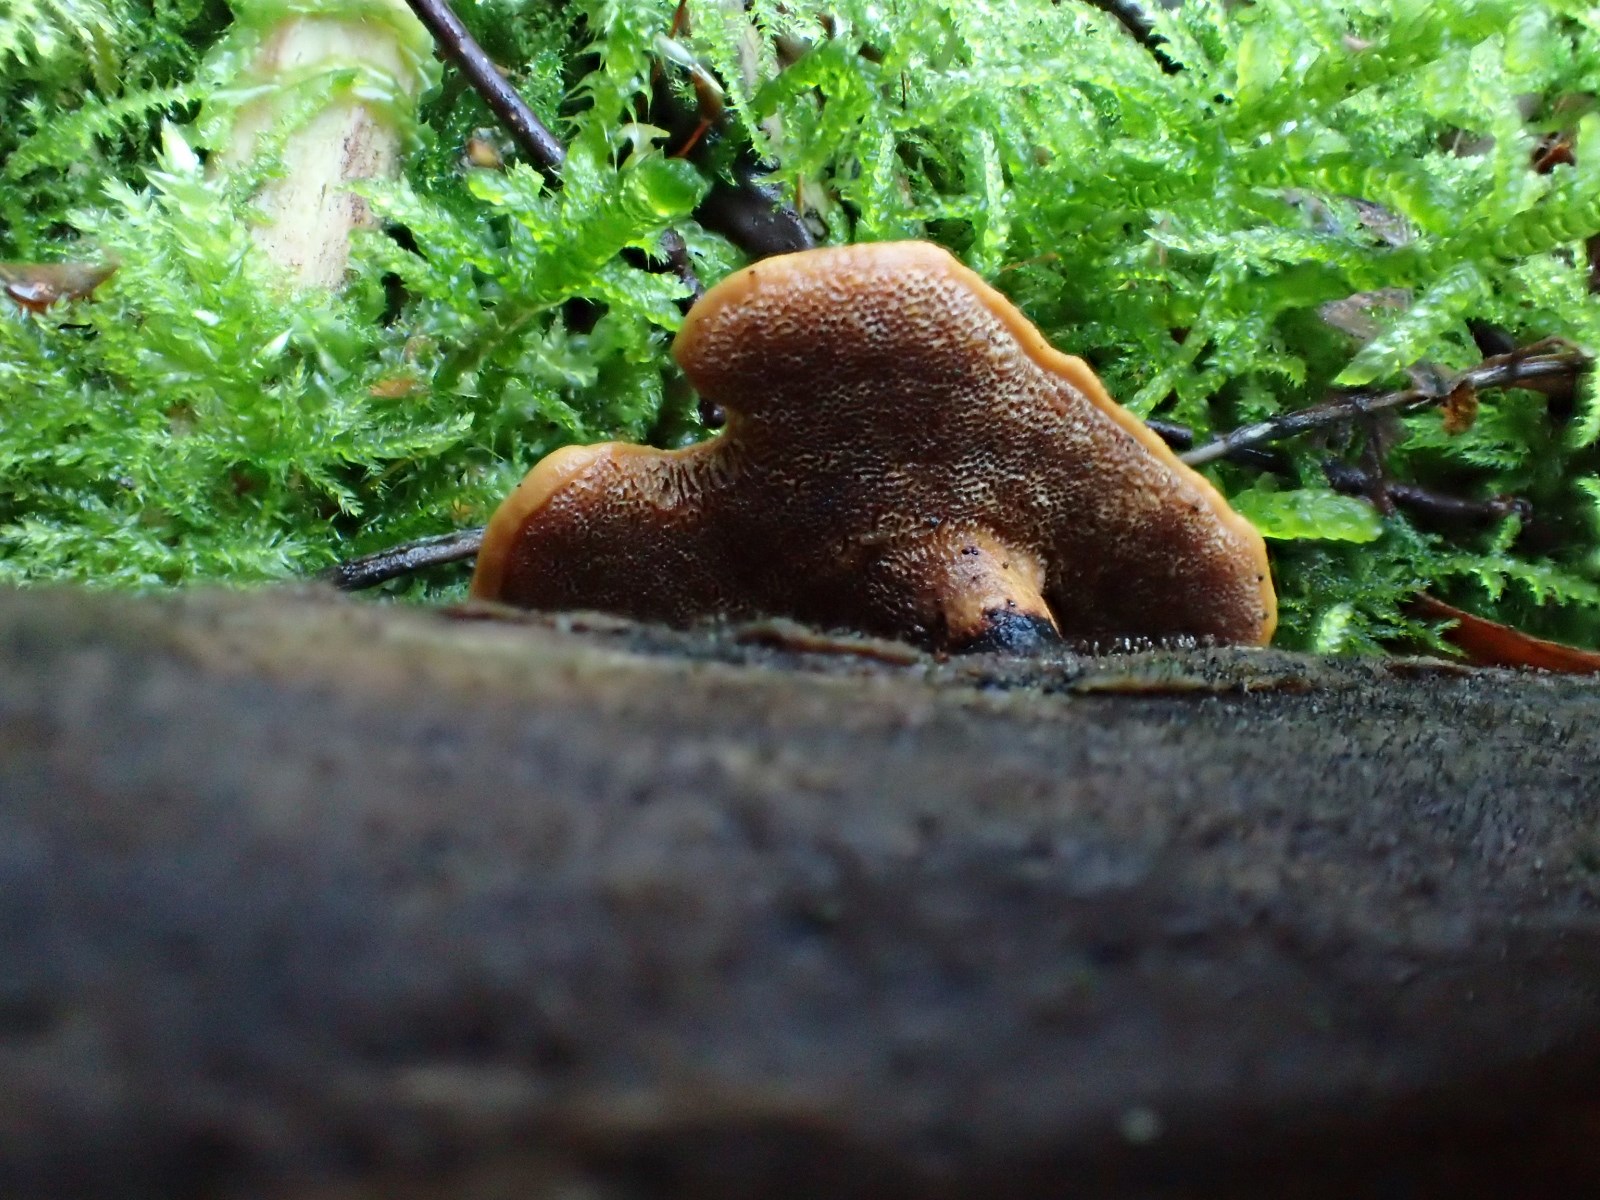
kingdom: Fungi
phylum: Basidiomycota
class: Agaricomycetes
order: Polyporales
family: Polyporaceae
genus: Cerioporus
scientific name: Cerioporus varius
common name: foranderlig stilkporesvamp
